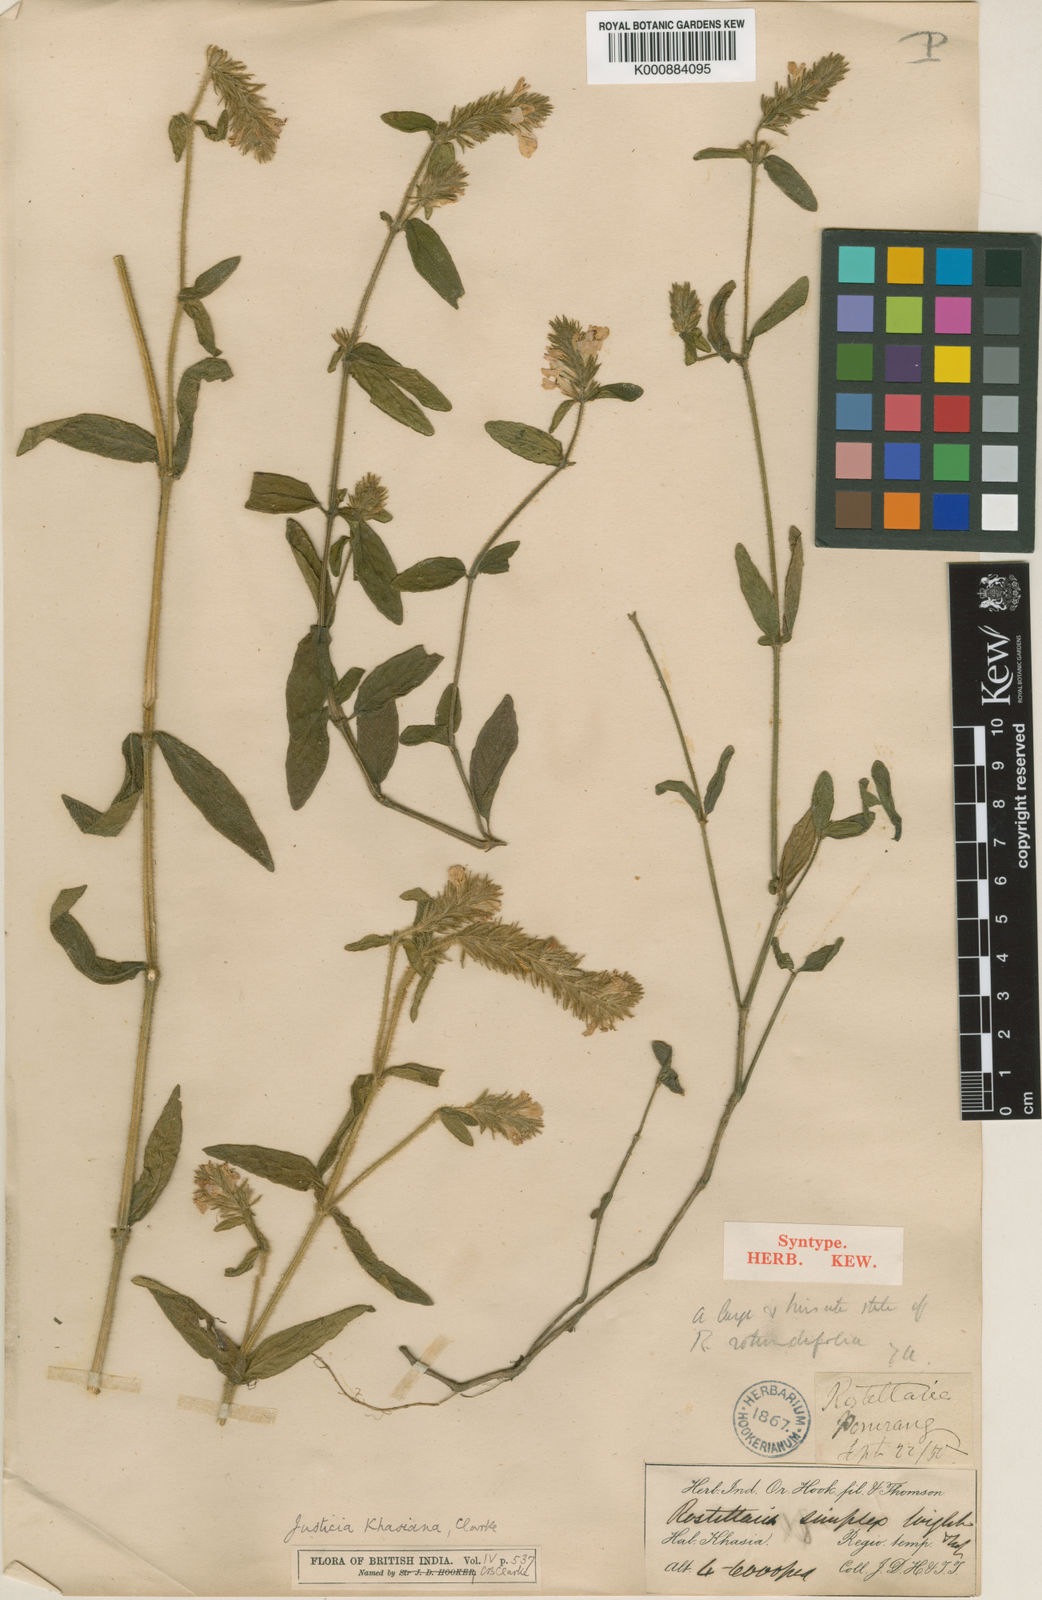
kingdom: Plantae
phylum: Tracheophyta
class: Magnoliopsida
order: Lamiales
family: Acanthaceae
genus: Rostellularia
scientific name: Rostellularia khasiana
